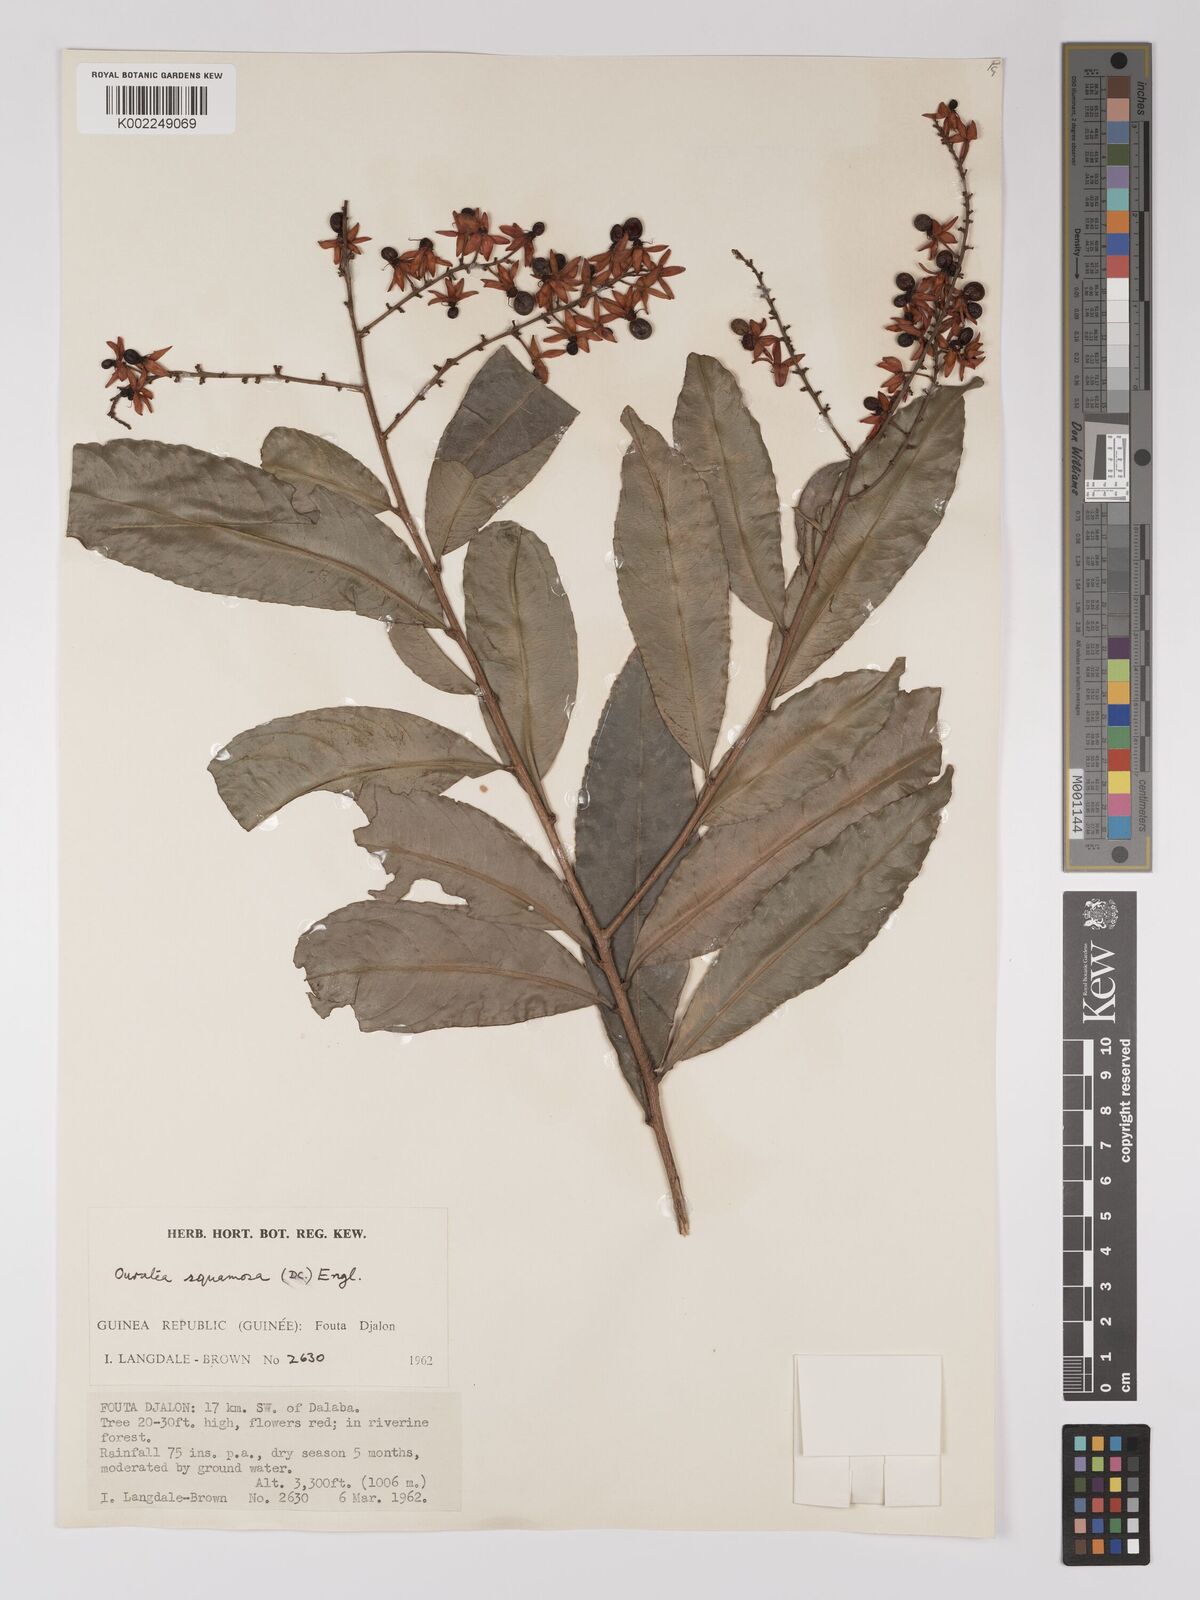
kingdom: Plantae
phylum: Tracheophyta
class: Magnoliopsida
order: Malpighiales
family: Ochnaceae
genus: Campylospermum
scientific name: Campylospermum squamosum
